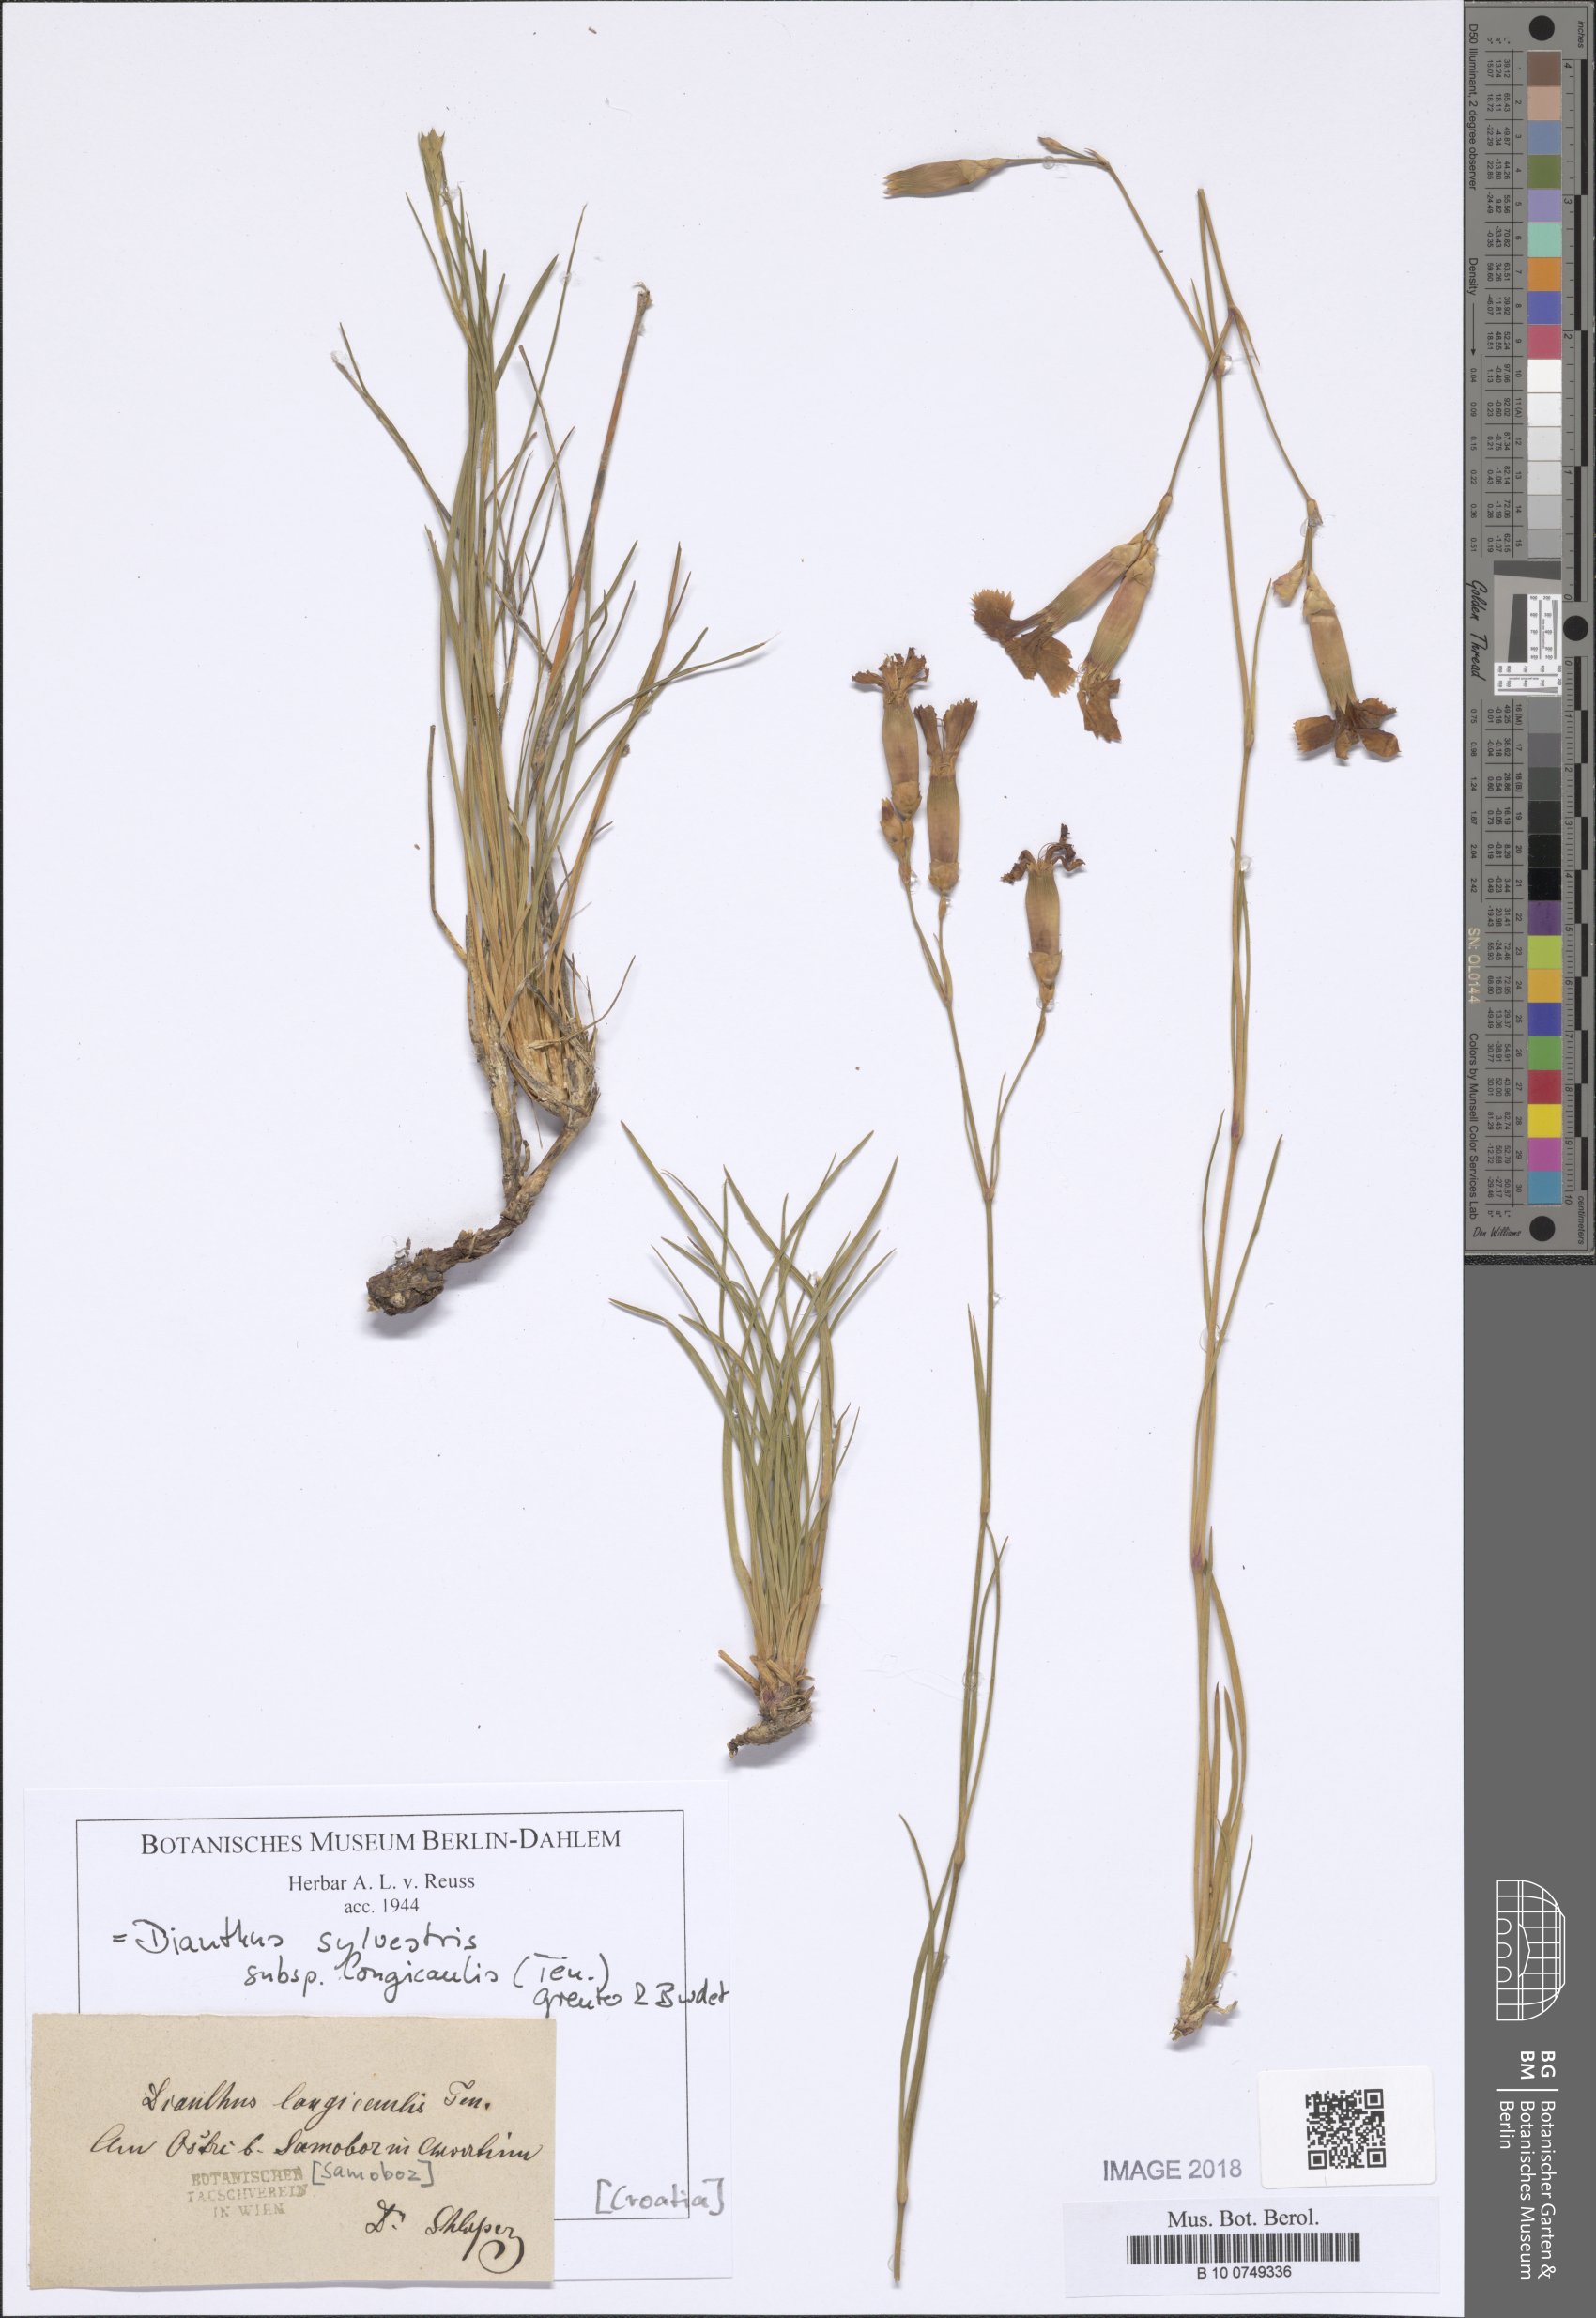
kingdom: Plantae
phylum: Tracheophyta
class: Magnoliopsida
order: Caryophyllales
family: Caryophyllaceae
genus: Dianthus
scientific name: Dianthus virgineus
